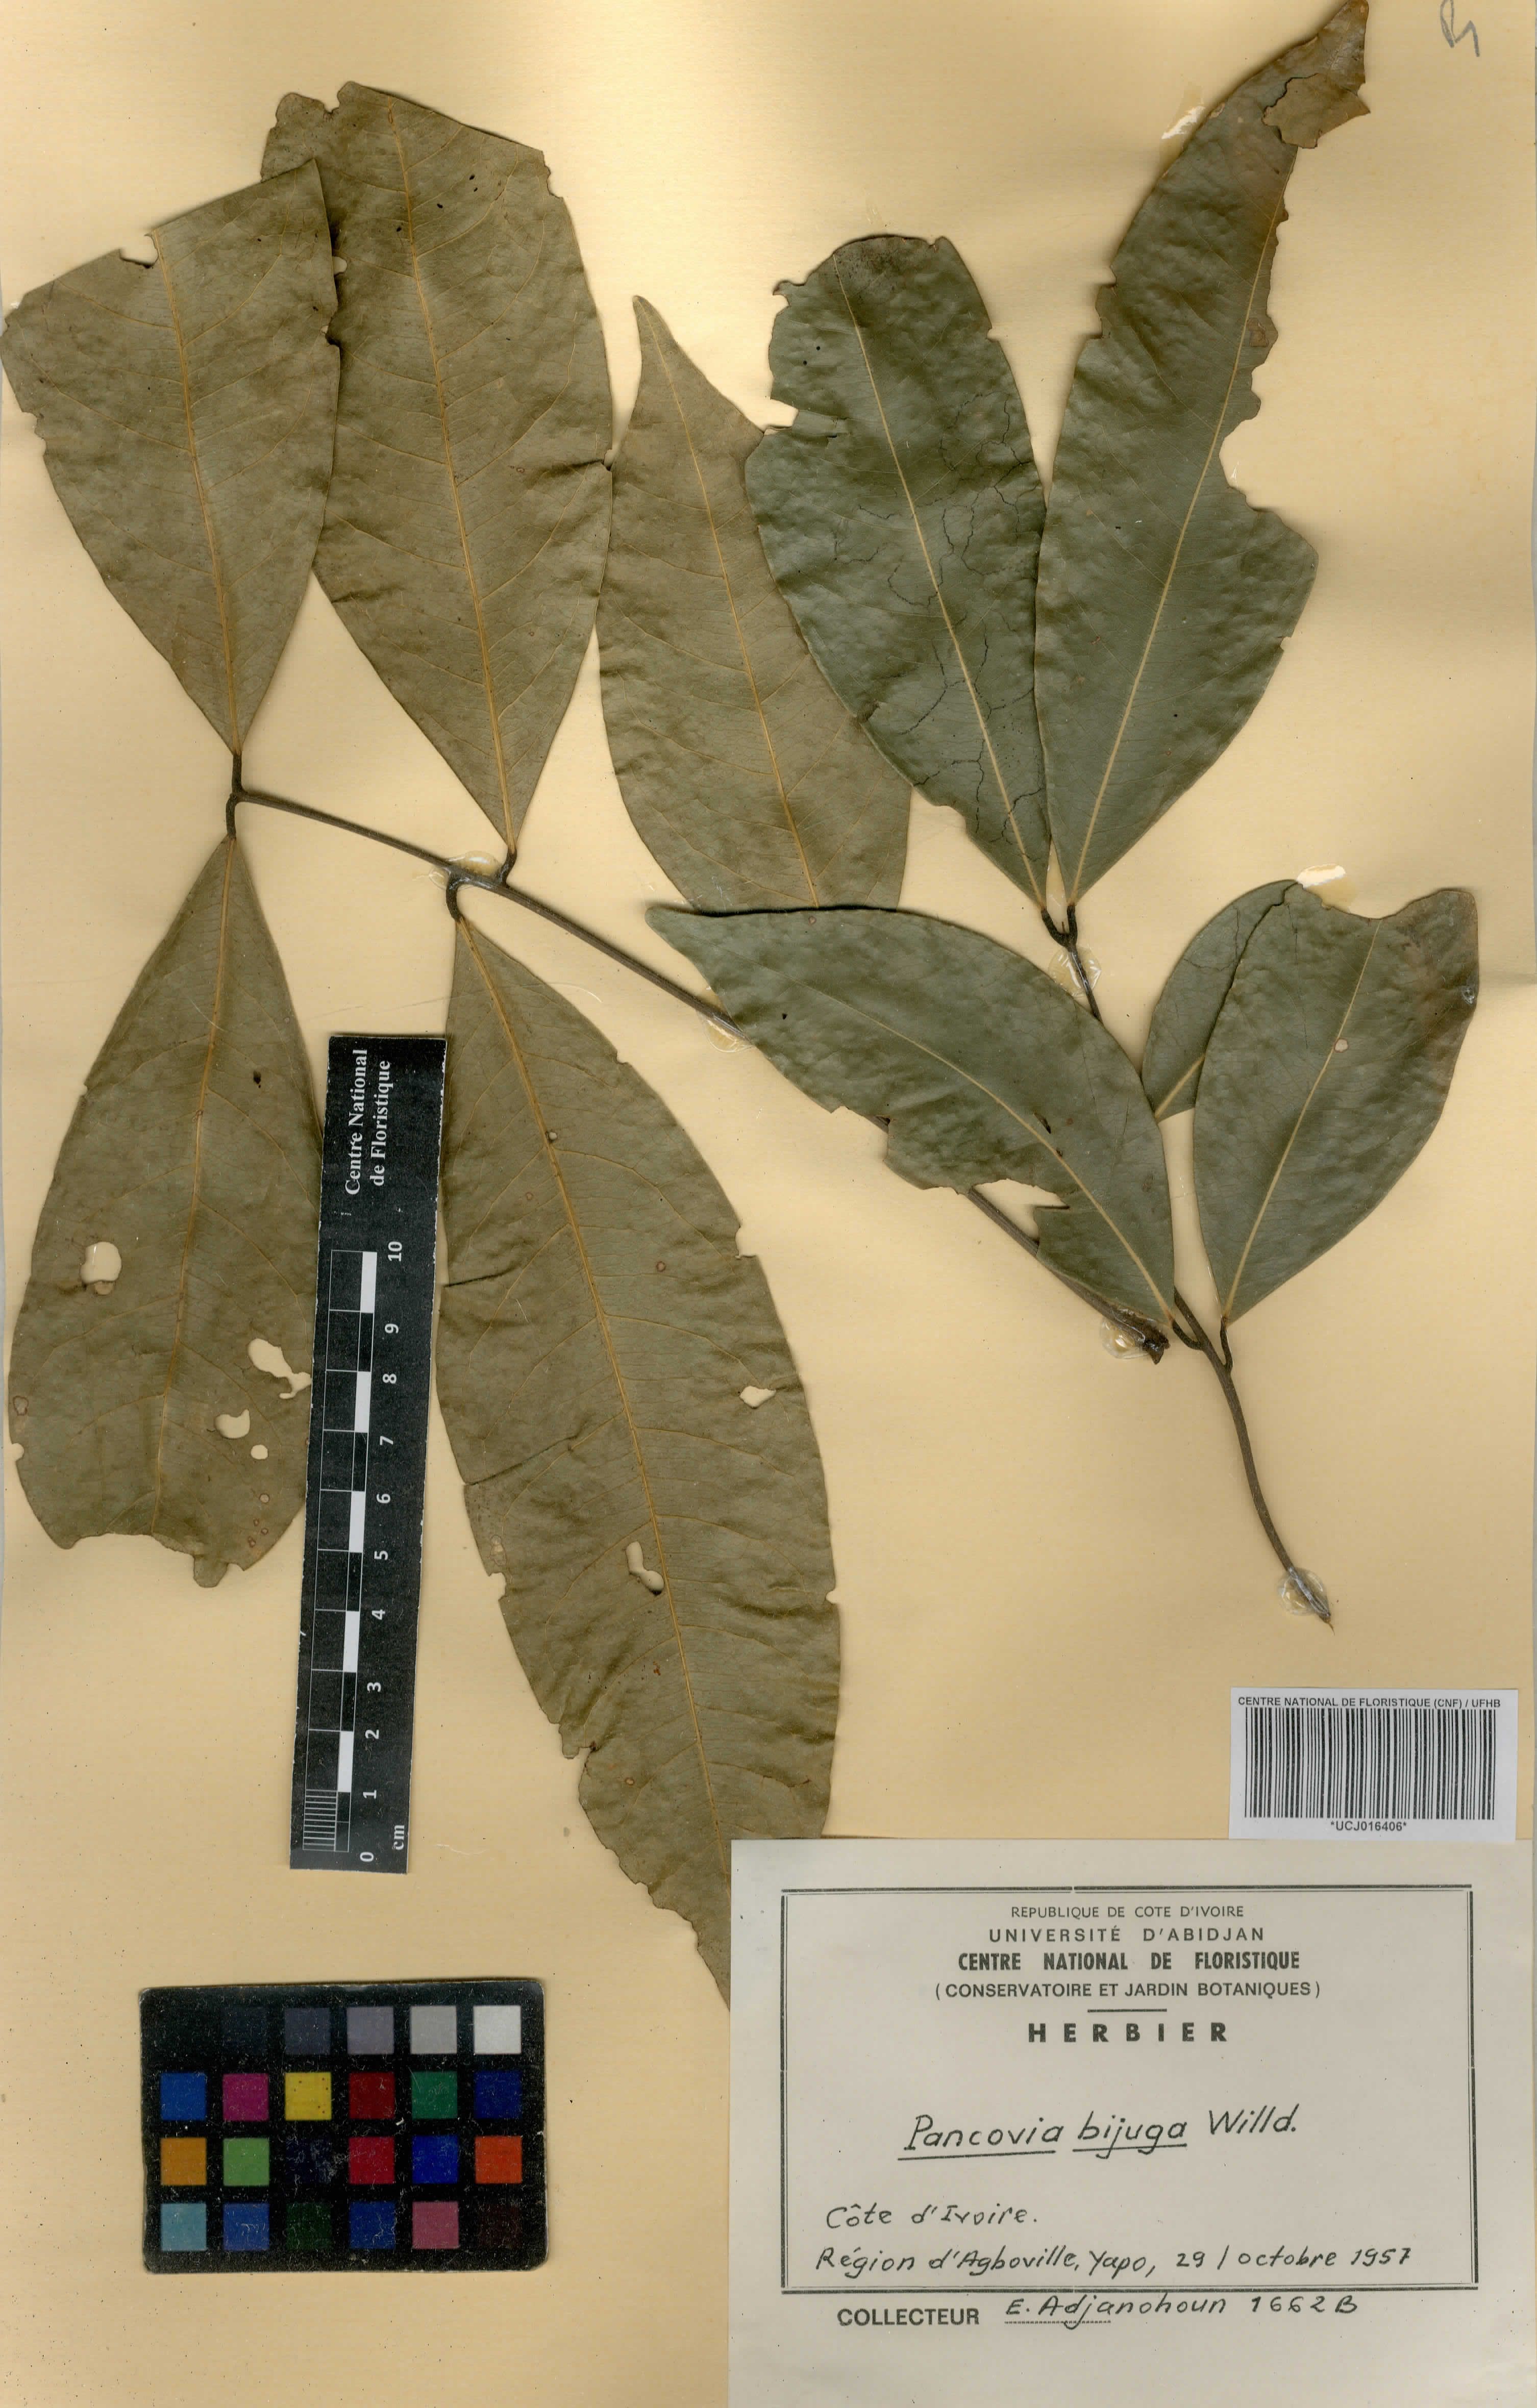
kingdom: Plantae
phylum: Tracheophyta
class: Magnoliopsida
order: Sapindales
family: Sapindaceae
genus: Pancovia
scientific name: Pancovia bijuga
